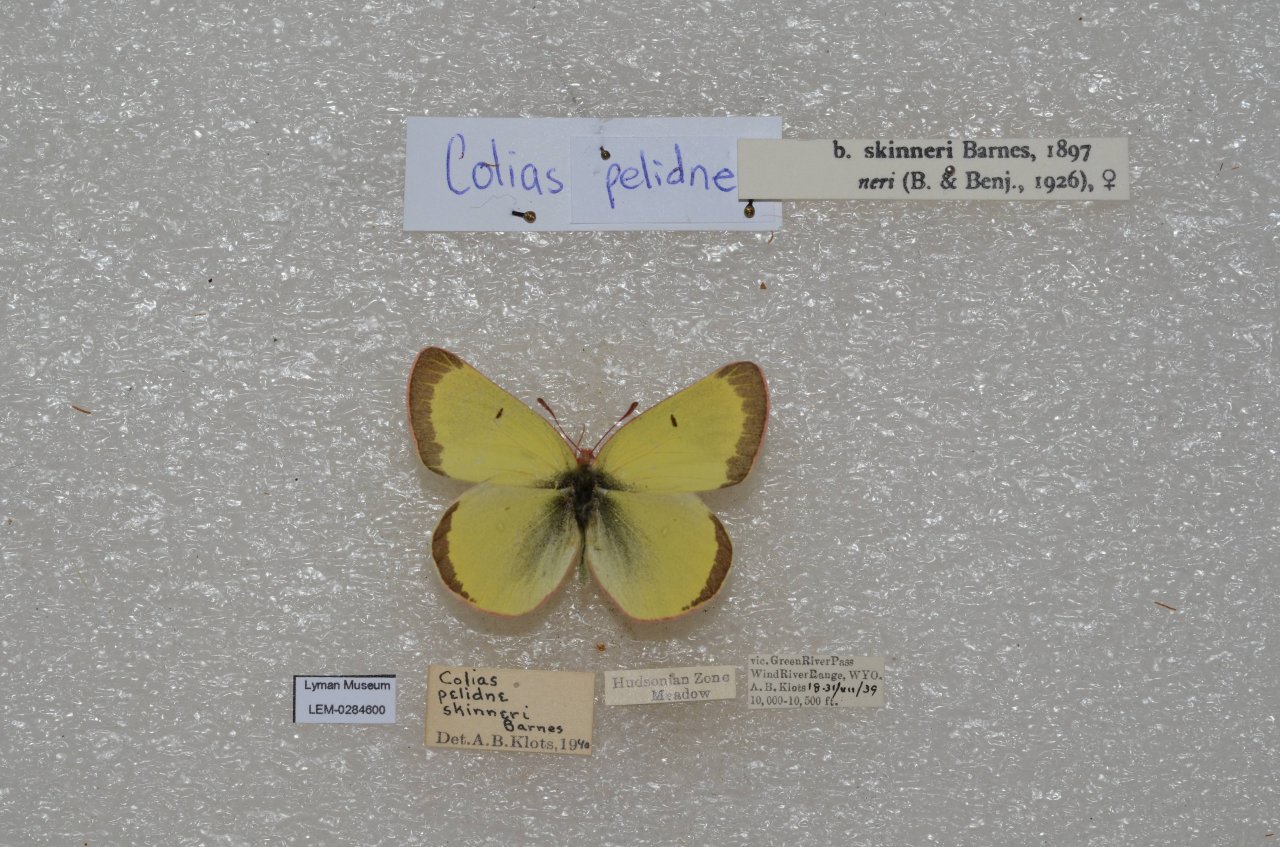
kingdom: Animalia
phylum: Arthropoda
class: Insecta
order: Lepidoptera
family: Pieridae
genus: Colias
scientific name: Colias pelidne
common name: Pelidne Sulphur
